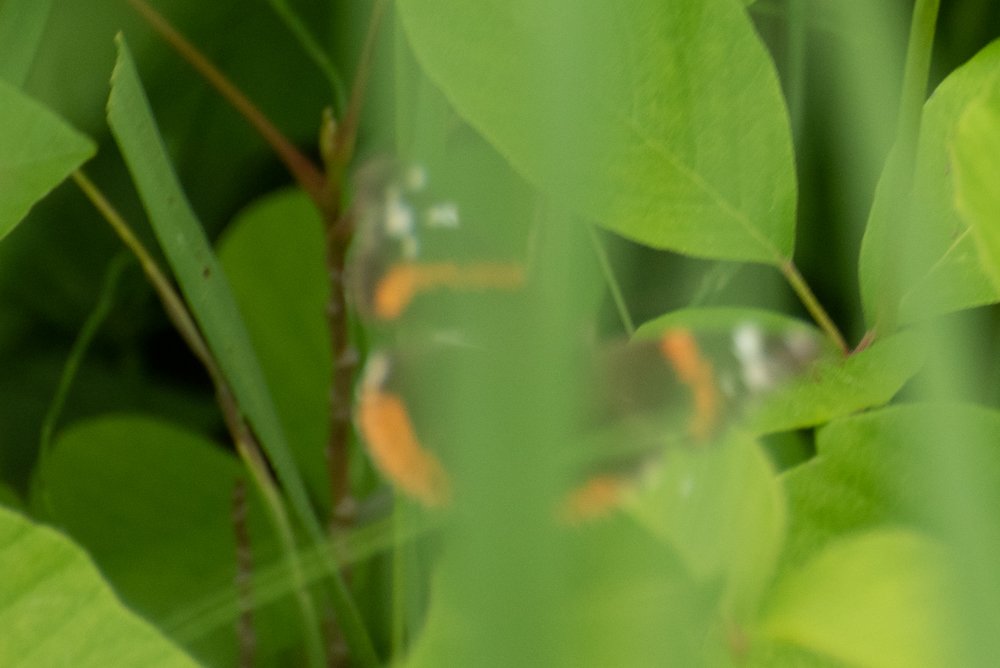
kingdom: Animalia
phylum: Arthropoda
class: Insecta
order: Lepidoptera
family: Nymphalidae
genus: Vanessa
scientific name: Vanessa atalanta
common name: Red Admiral
